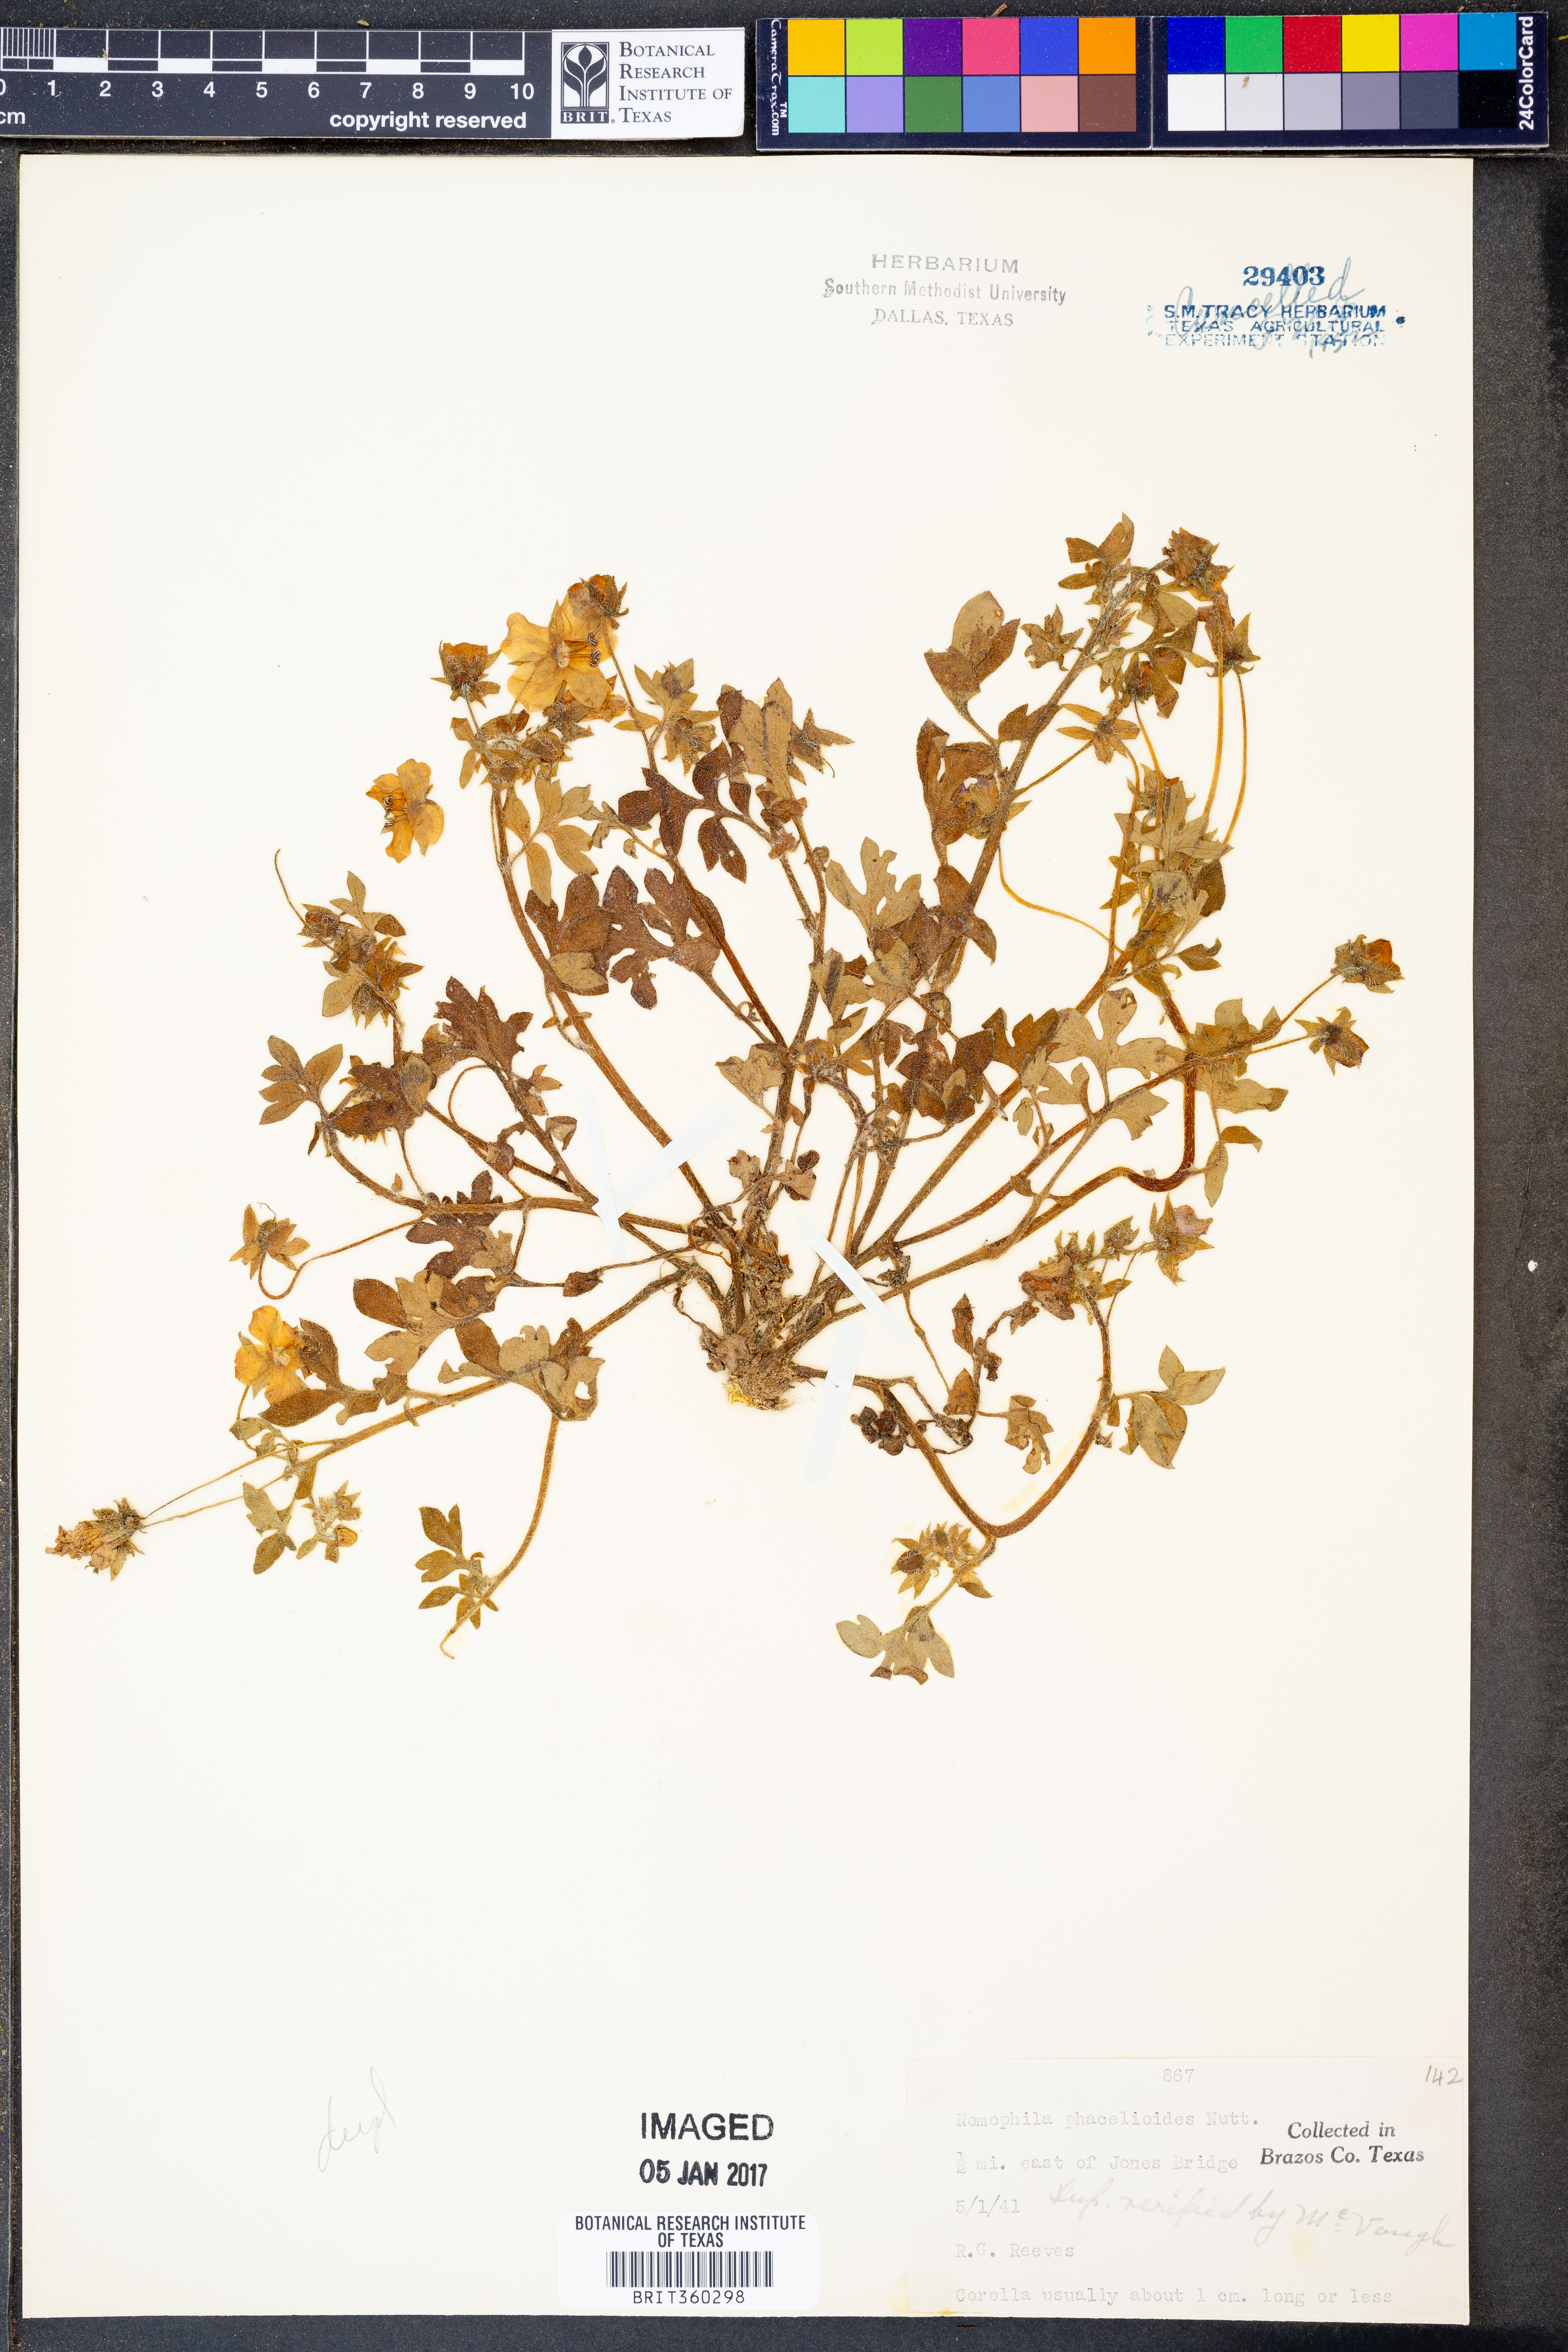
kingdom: Plantae
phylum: Tracheophyta
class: Magnoliopsida
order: Boraginales
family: Hydrophyllaceae
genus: Nemophila
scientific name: Nemophila phacelioides
